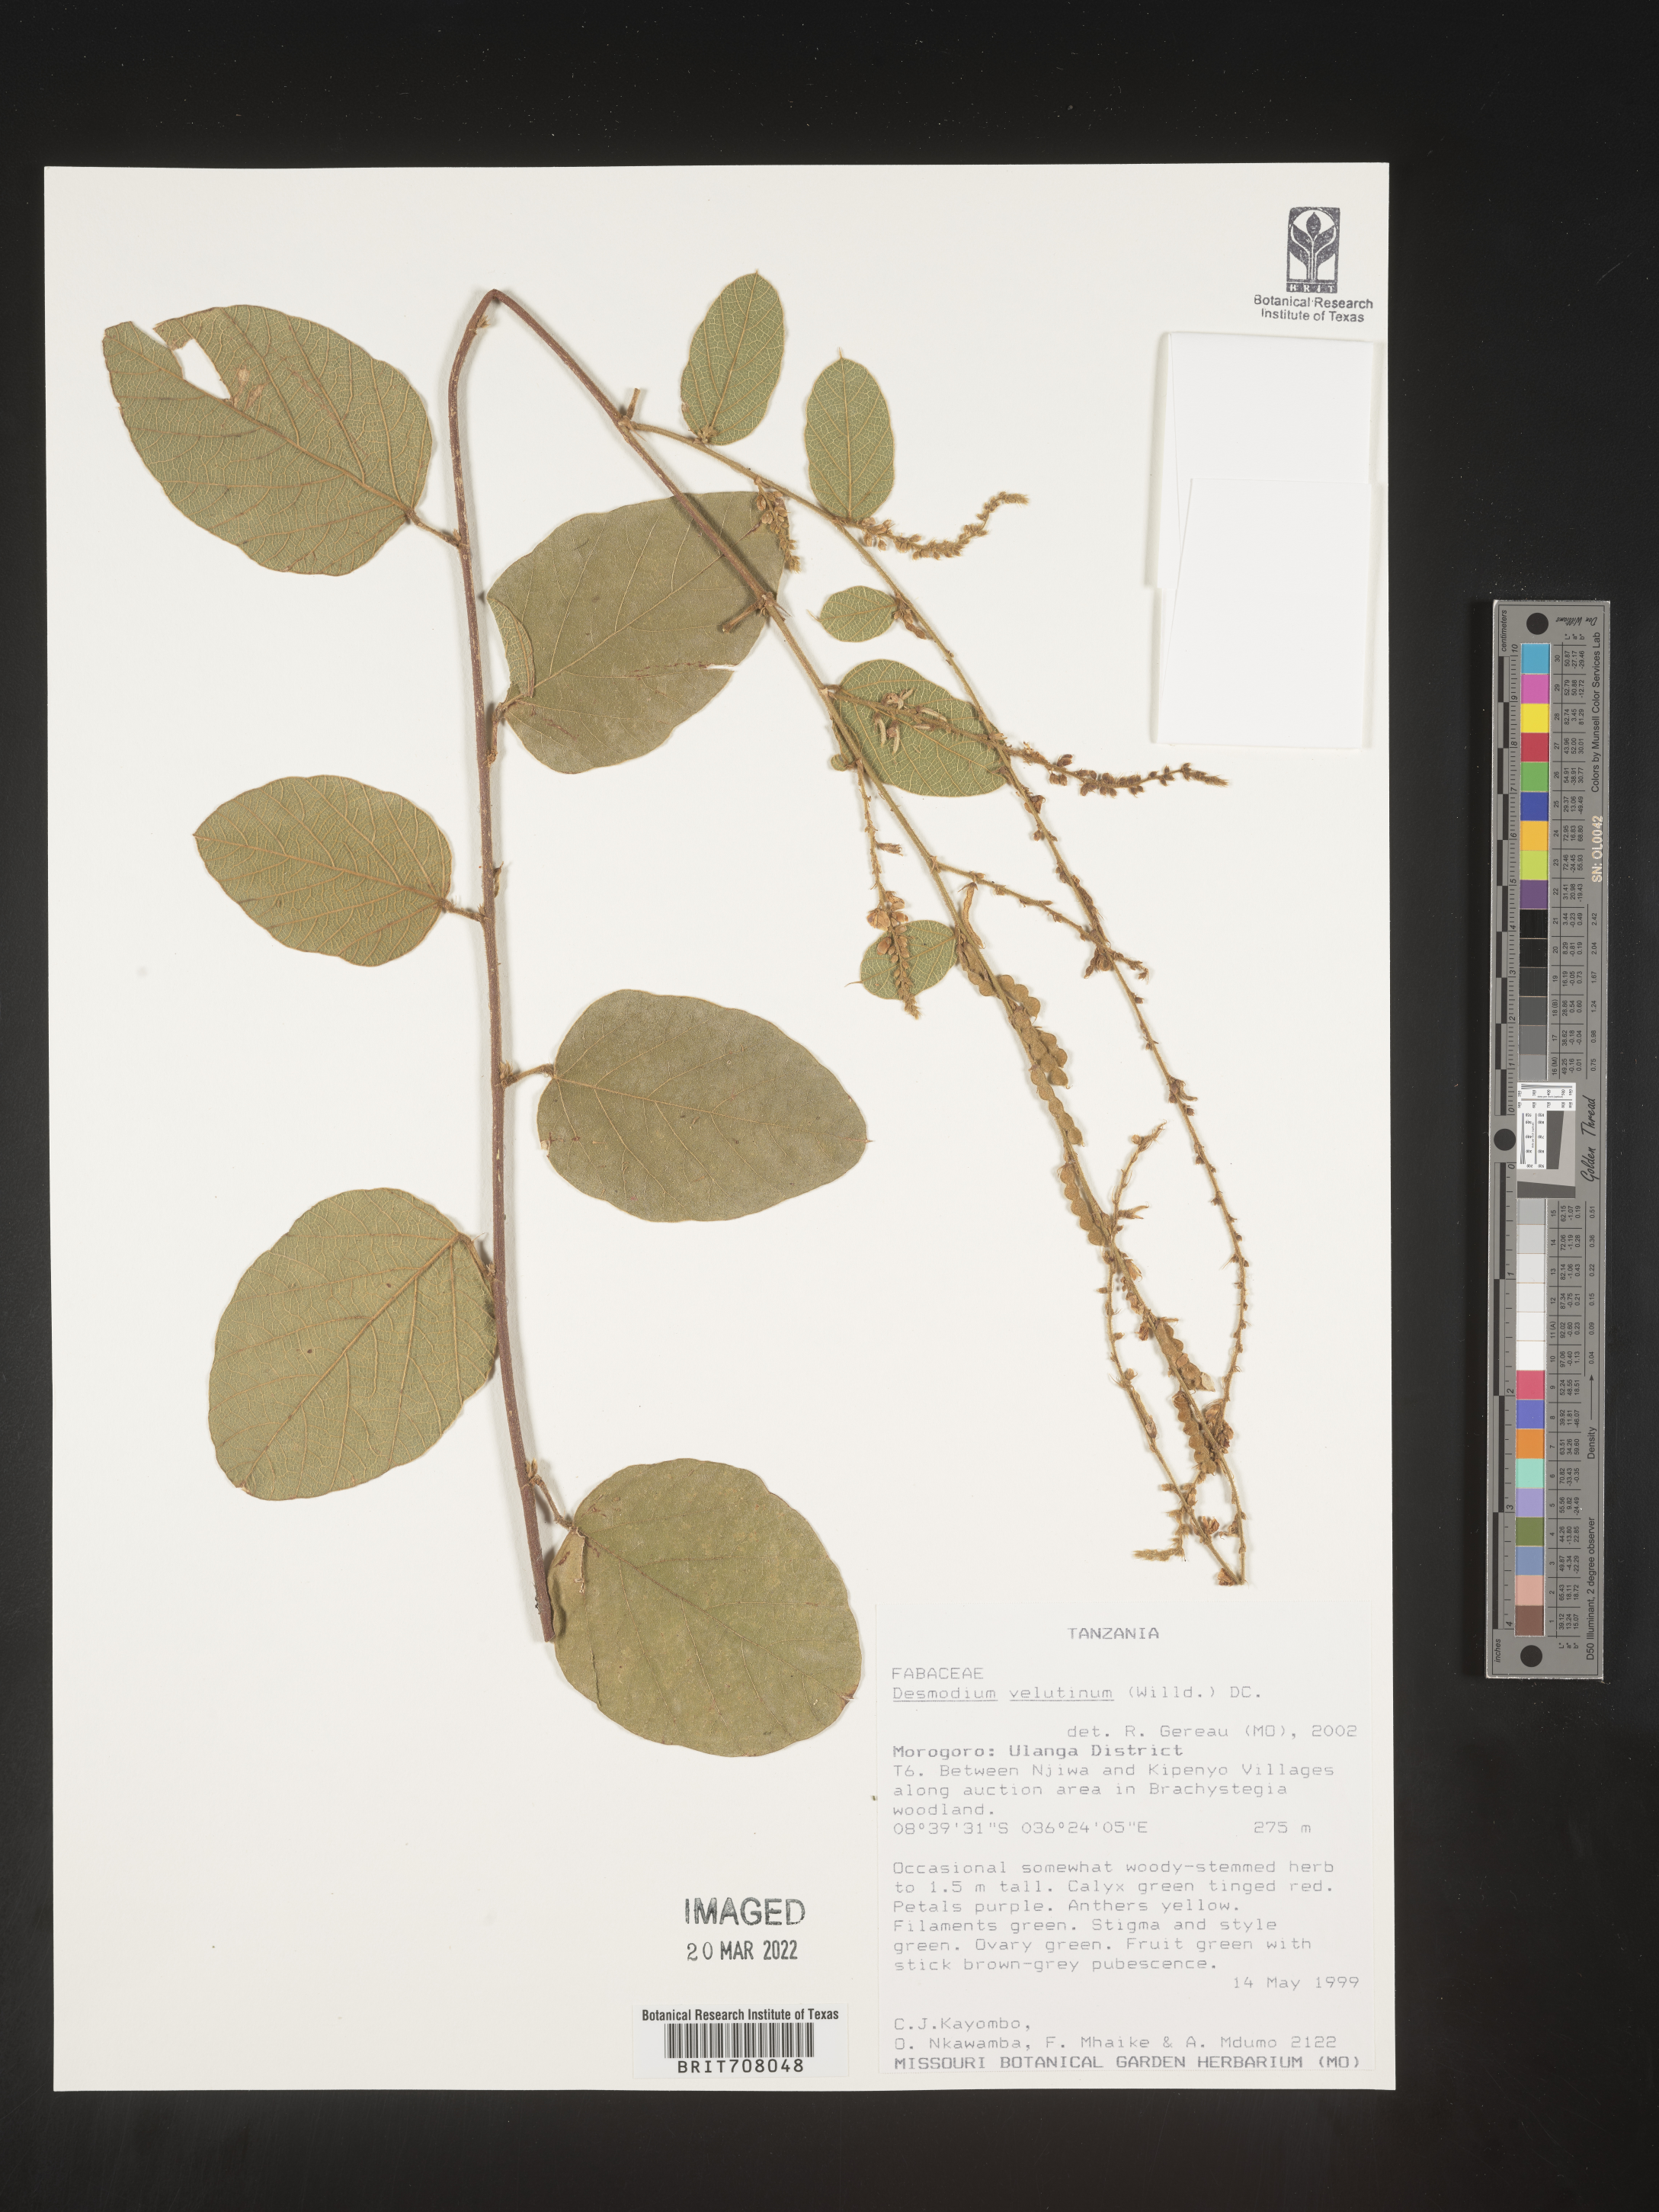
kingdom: Plantae
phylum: Tracheophyta
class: Magnoliopsida
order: Fabales
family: Fabaceae
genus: Desmodium
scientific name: Desmodium
